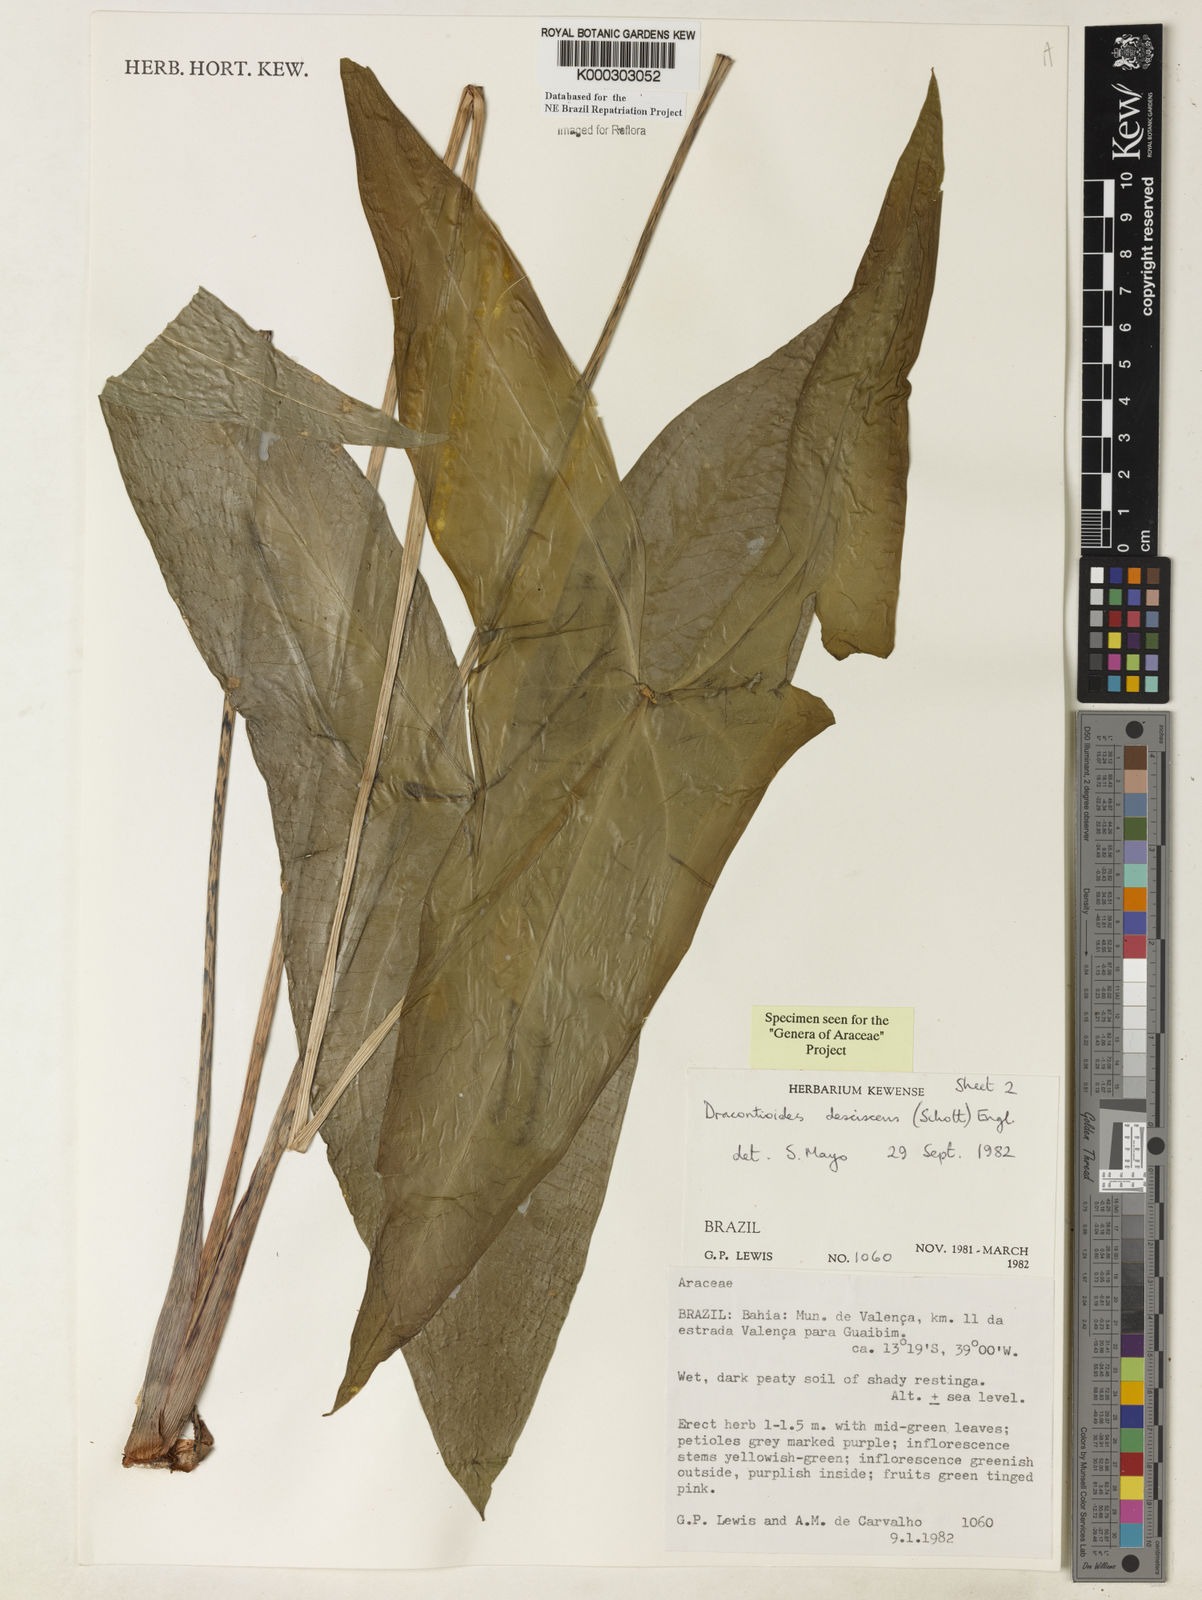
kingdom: Plantae
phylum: Tracheophyta
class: Liliopsida
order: Alismatales
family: Araceae
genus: Dracontioides
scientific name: Dracontioides desciscens
